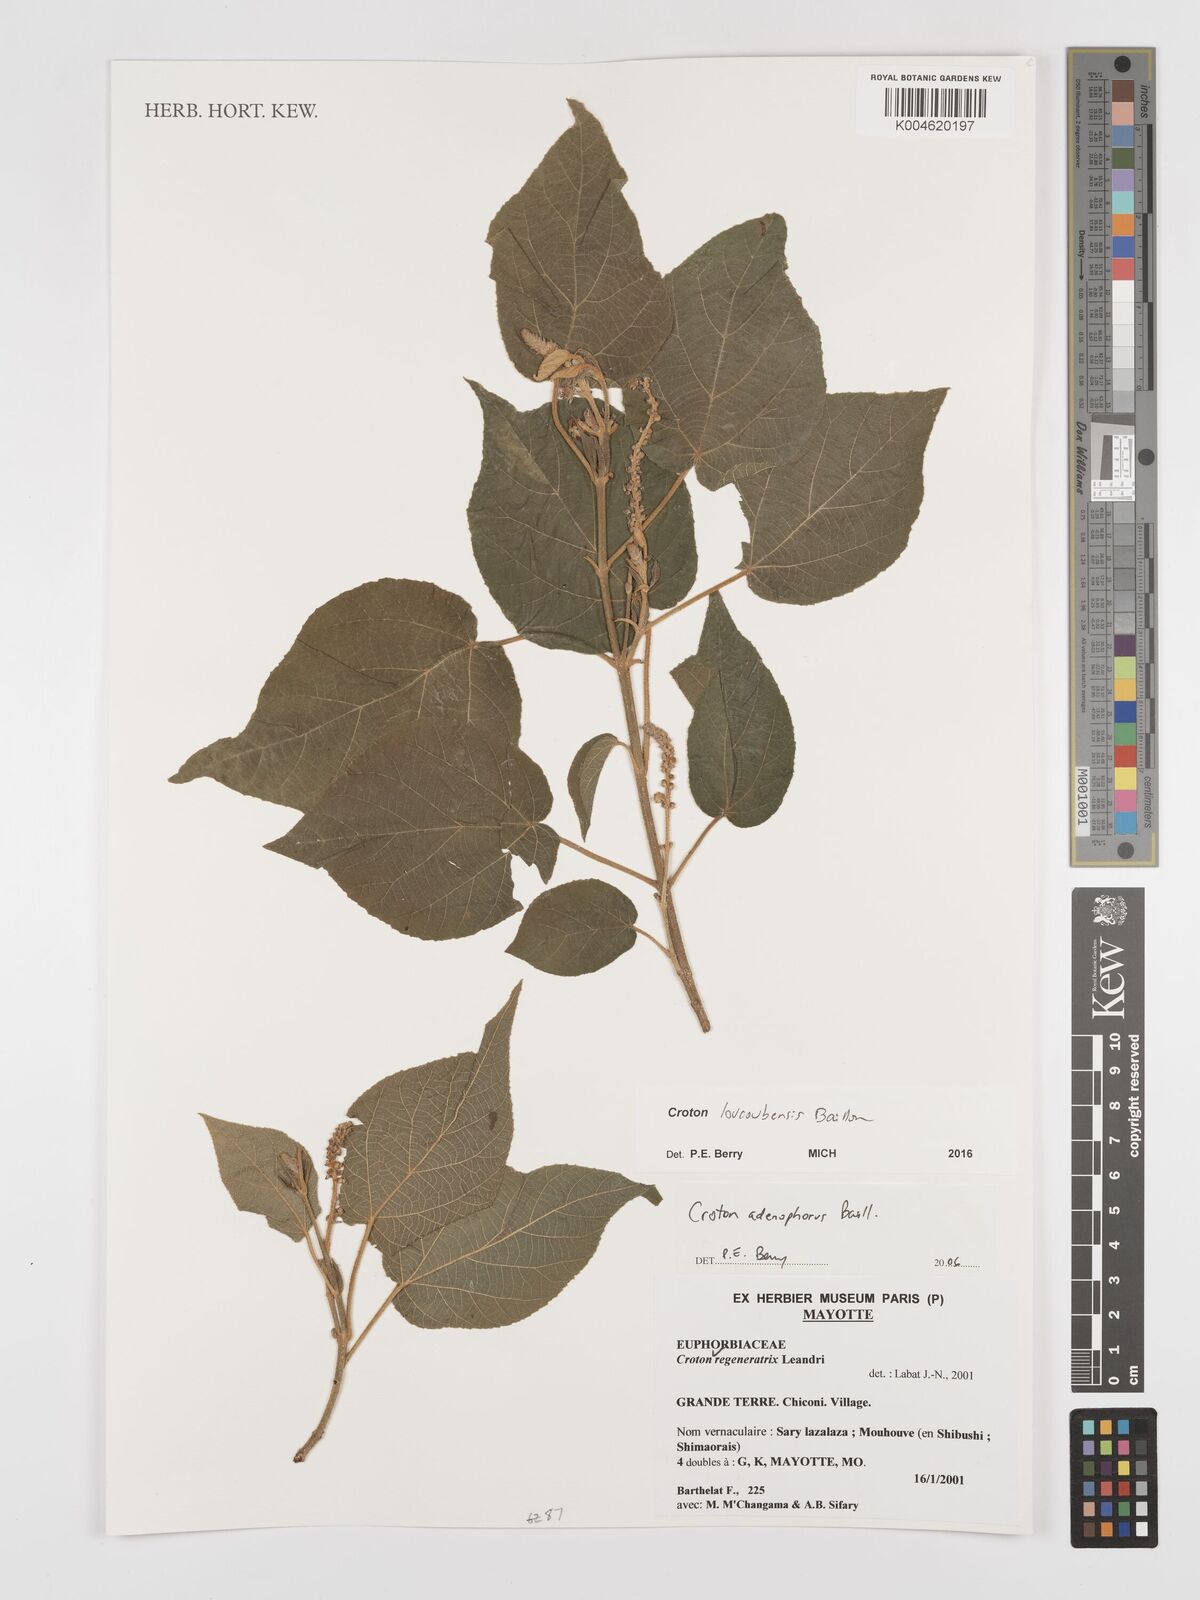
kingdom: Plantae
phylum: Tracheophyta
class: Magnoliopsida
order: Malpighiales
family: Euphorbiaceae
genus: Croton
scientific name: Croton loucoubensis
